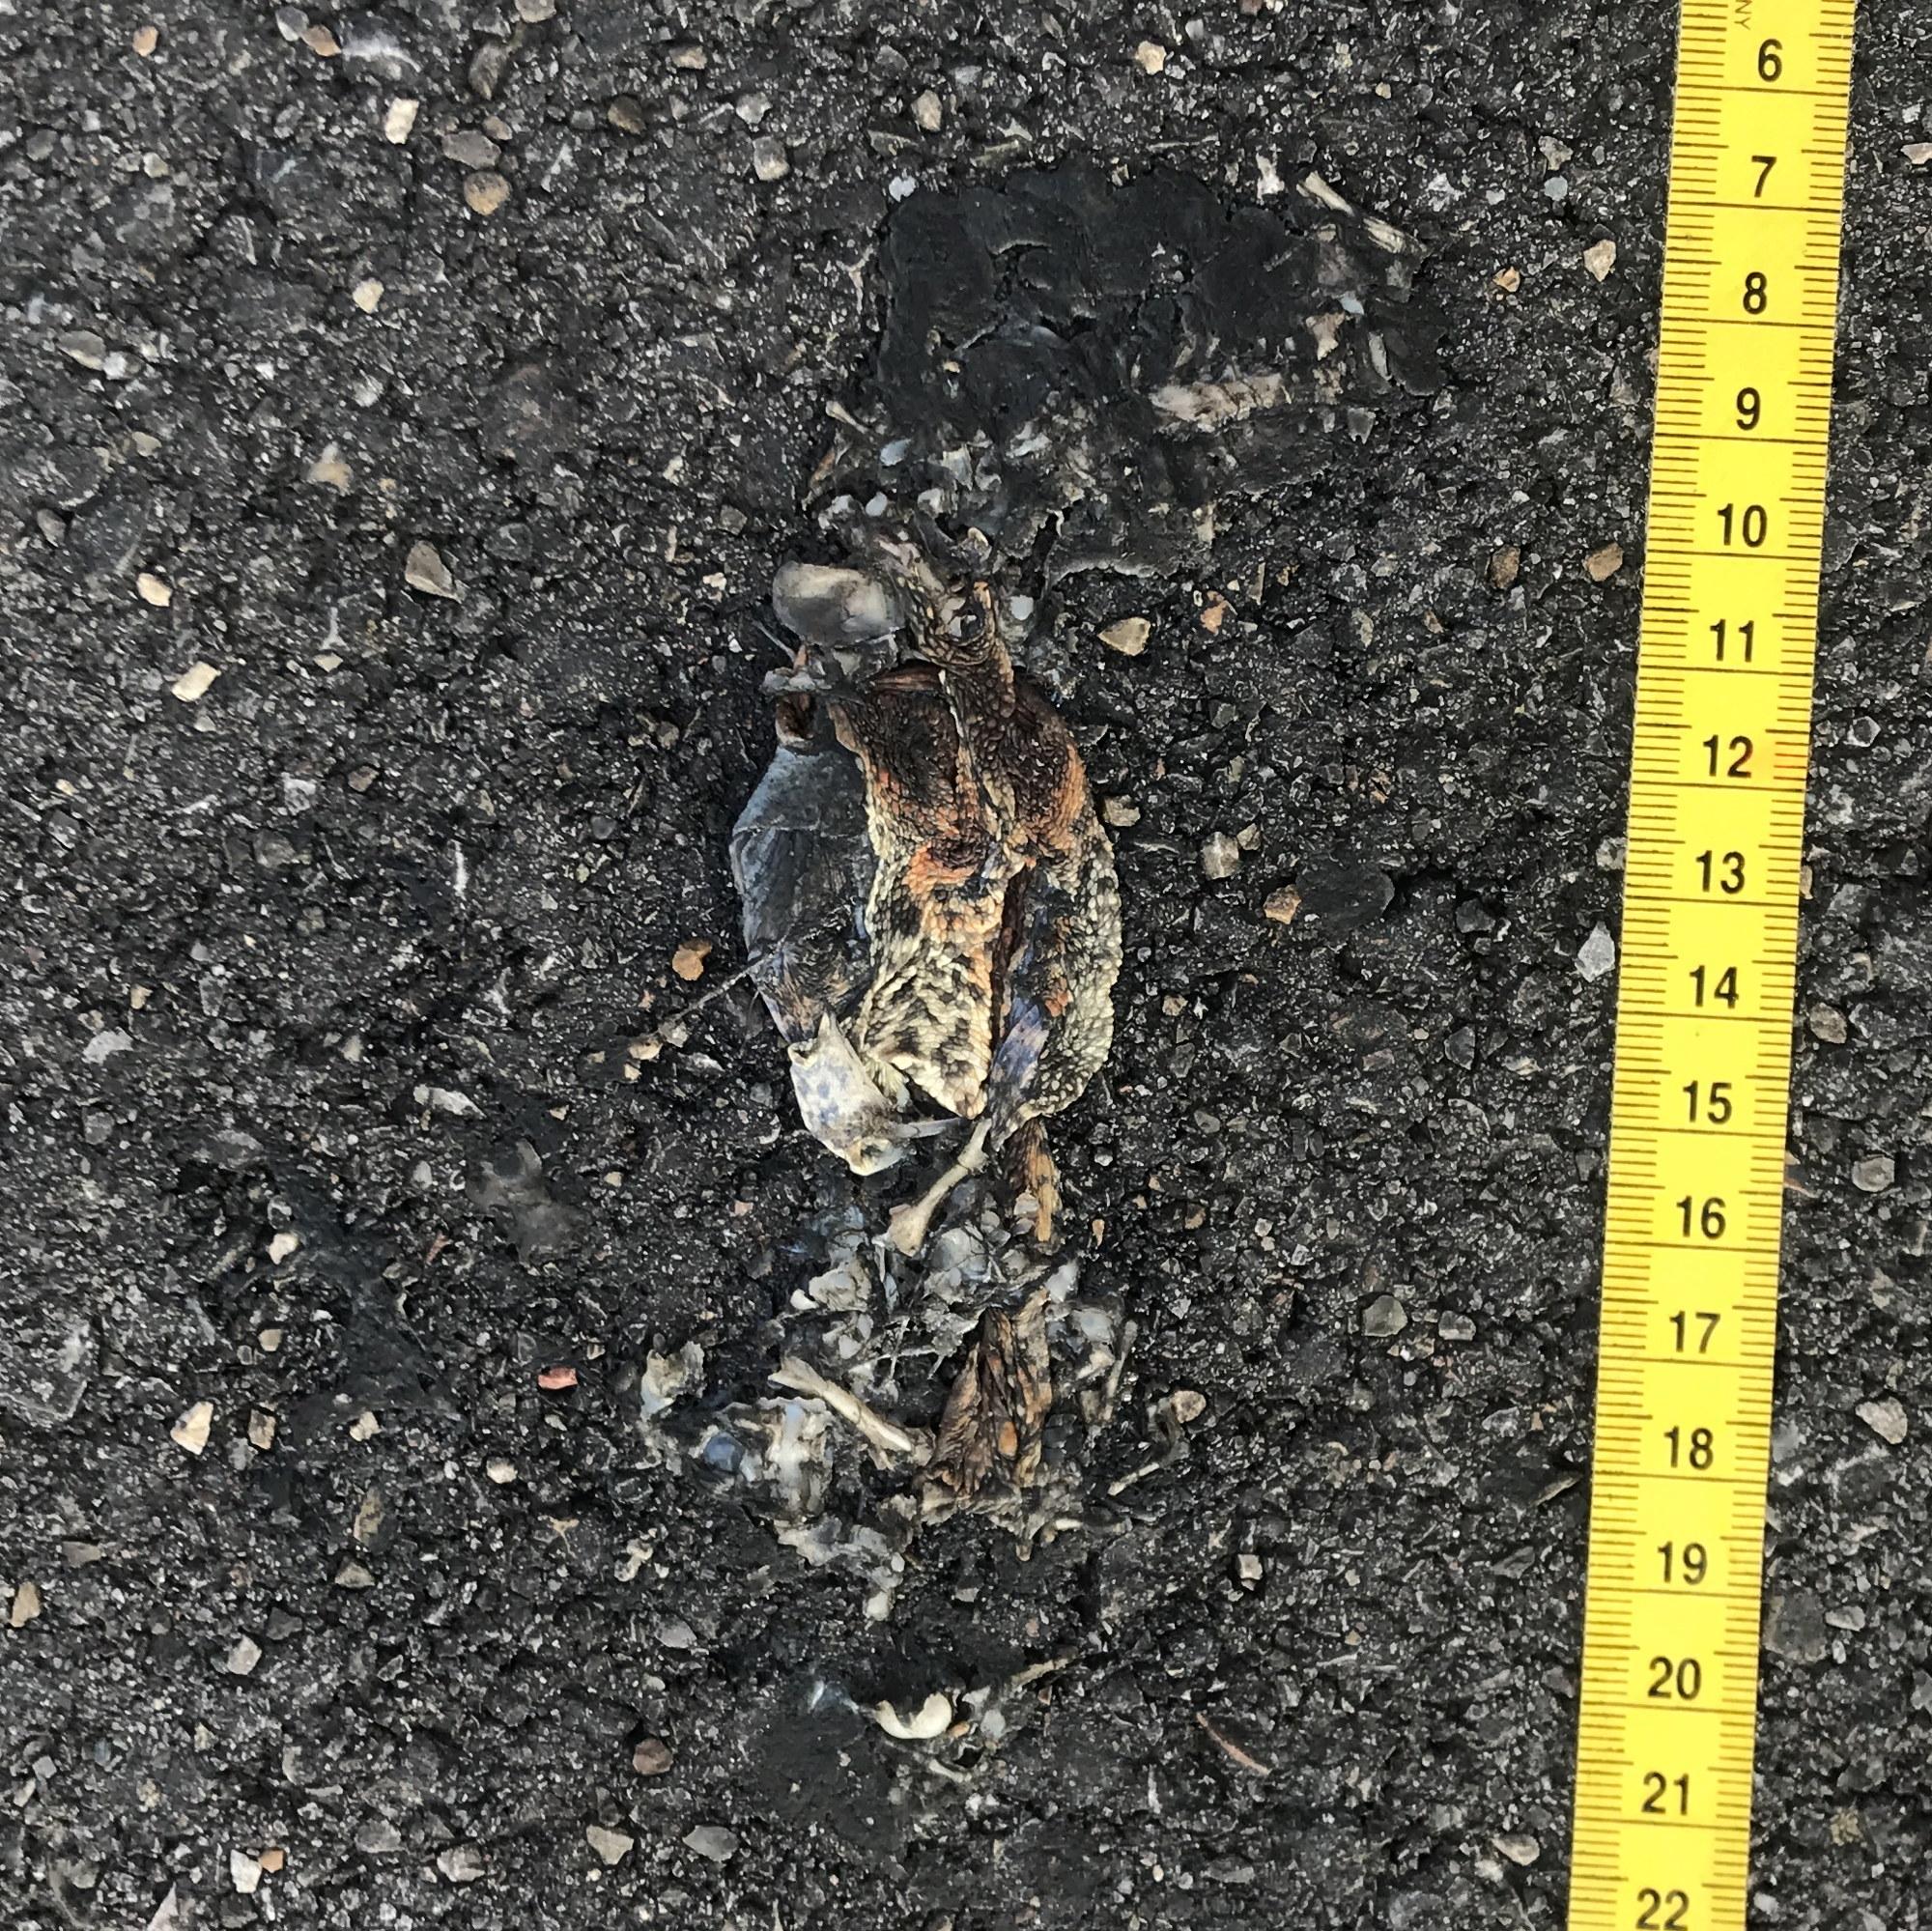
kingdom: Animalia
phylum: Chordata
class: Amphibia
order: Anura
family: Bufonidae
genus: Bufo
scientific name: Bufo bufo
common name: Common toad
